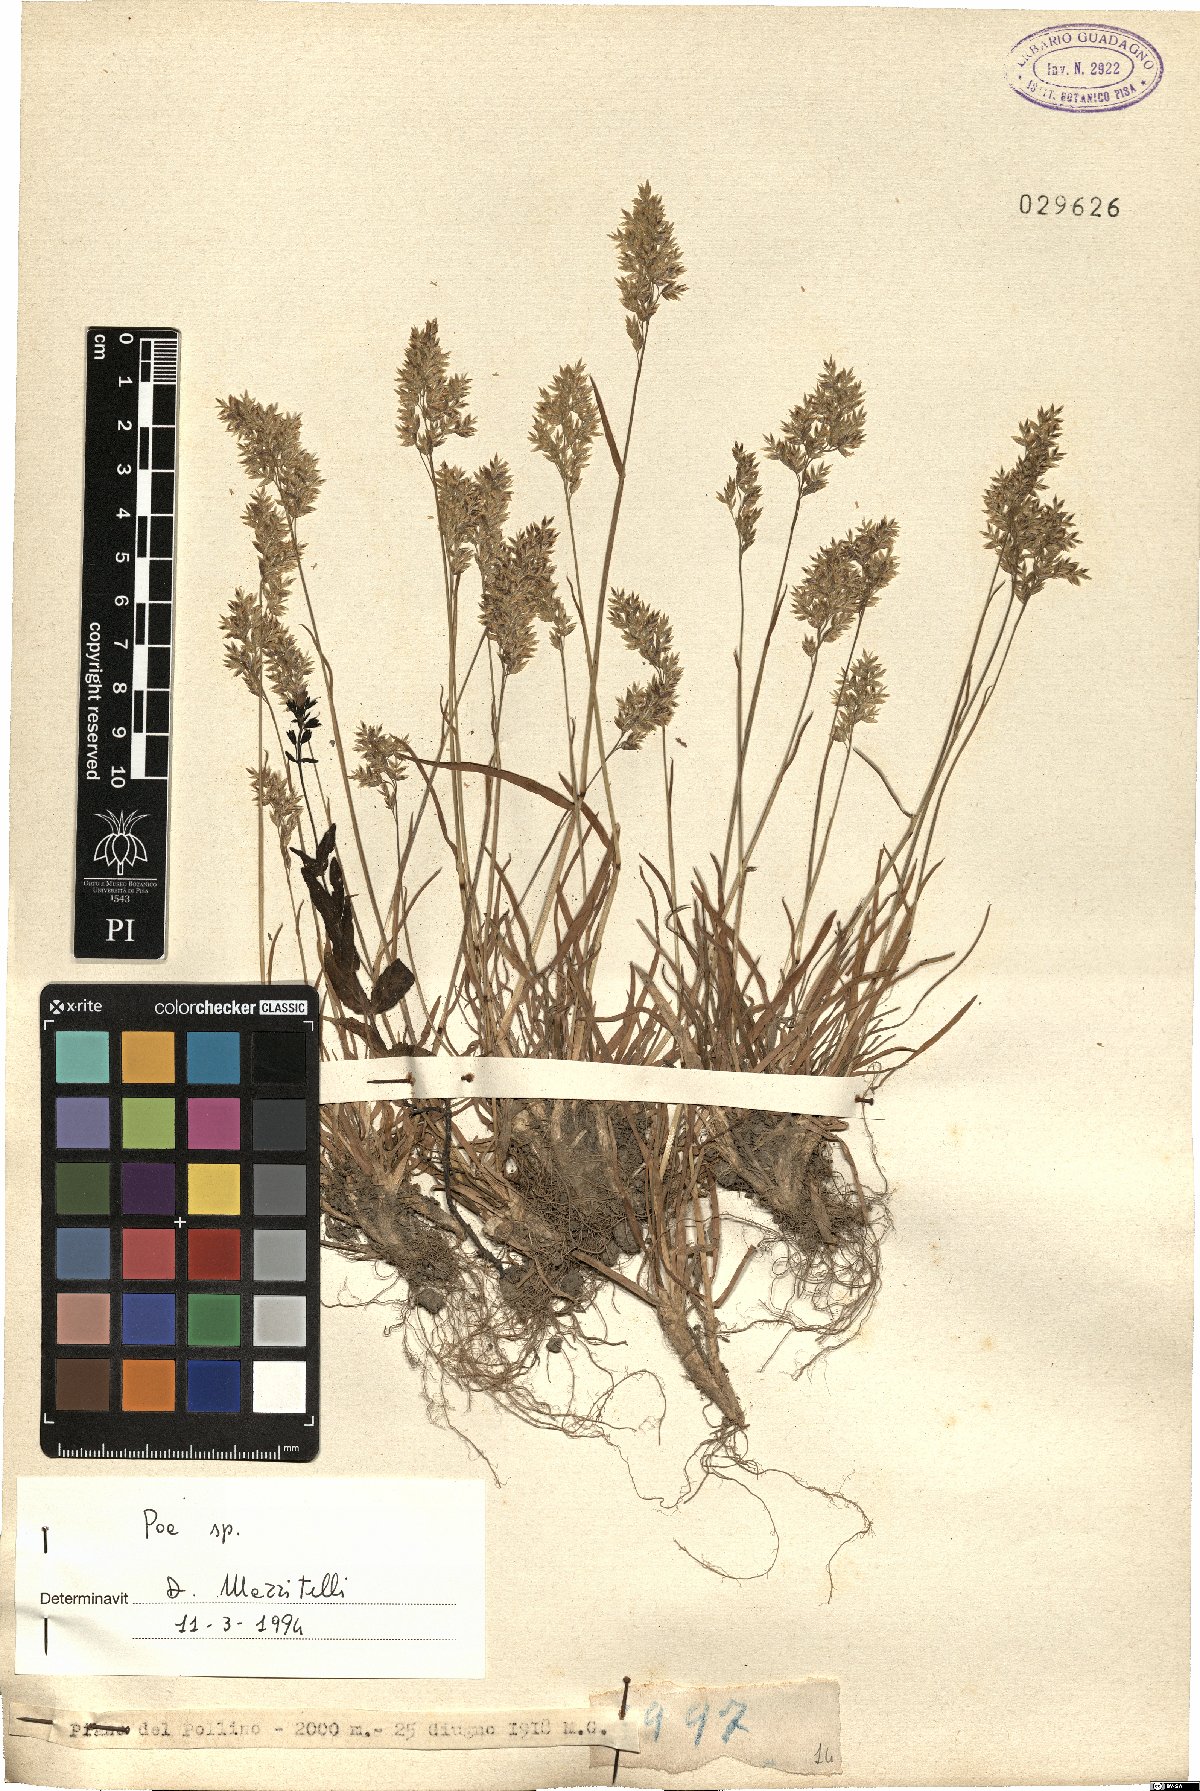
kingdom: Plantae
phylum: Tracheophyta
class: Liliopsida
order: Poales
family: Poaceae
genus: Poa
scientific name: Poa
